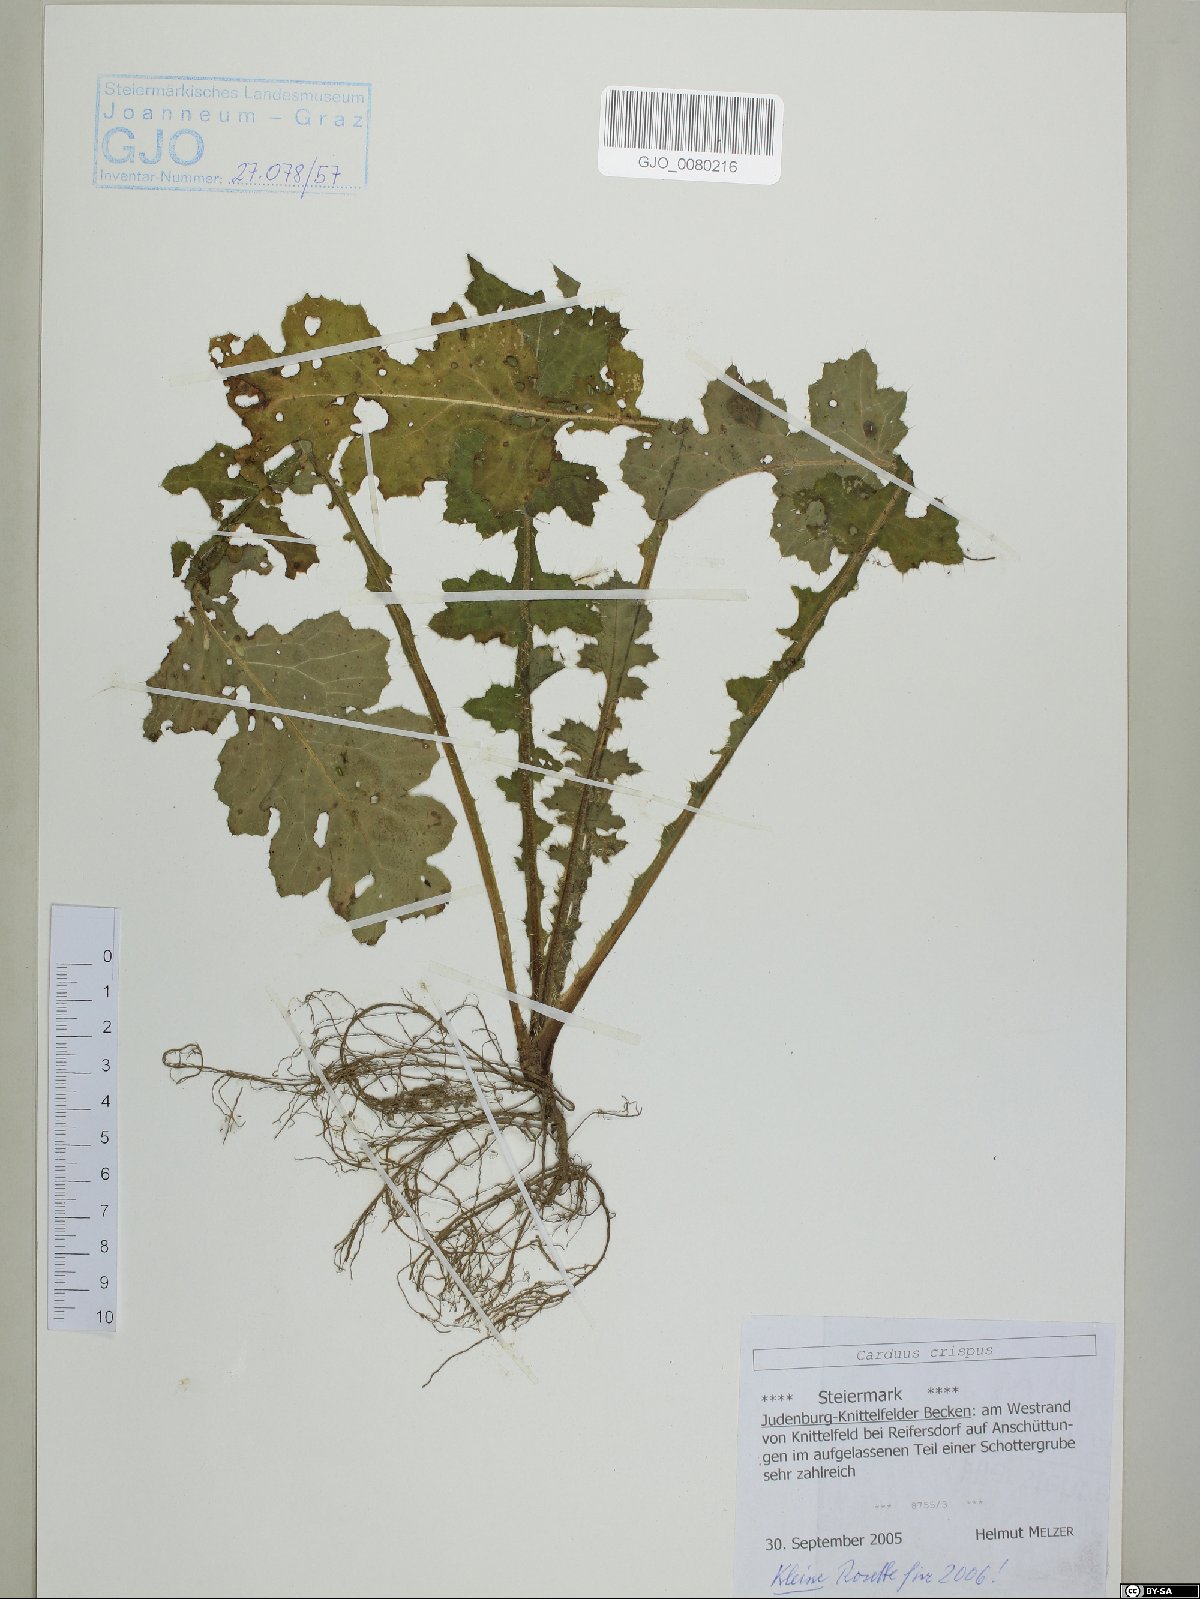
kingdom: Plantae
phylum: Tracheophyta
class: Magnoliopsida
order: Asterales
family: Asteraceae
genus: Carduus
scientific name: Carduus crispus
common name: Welted thistle
